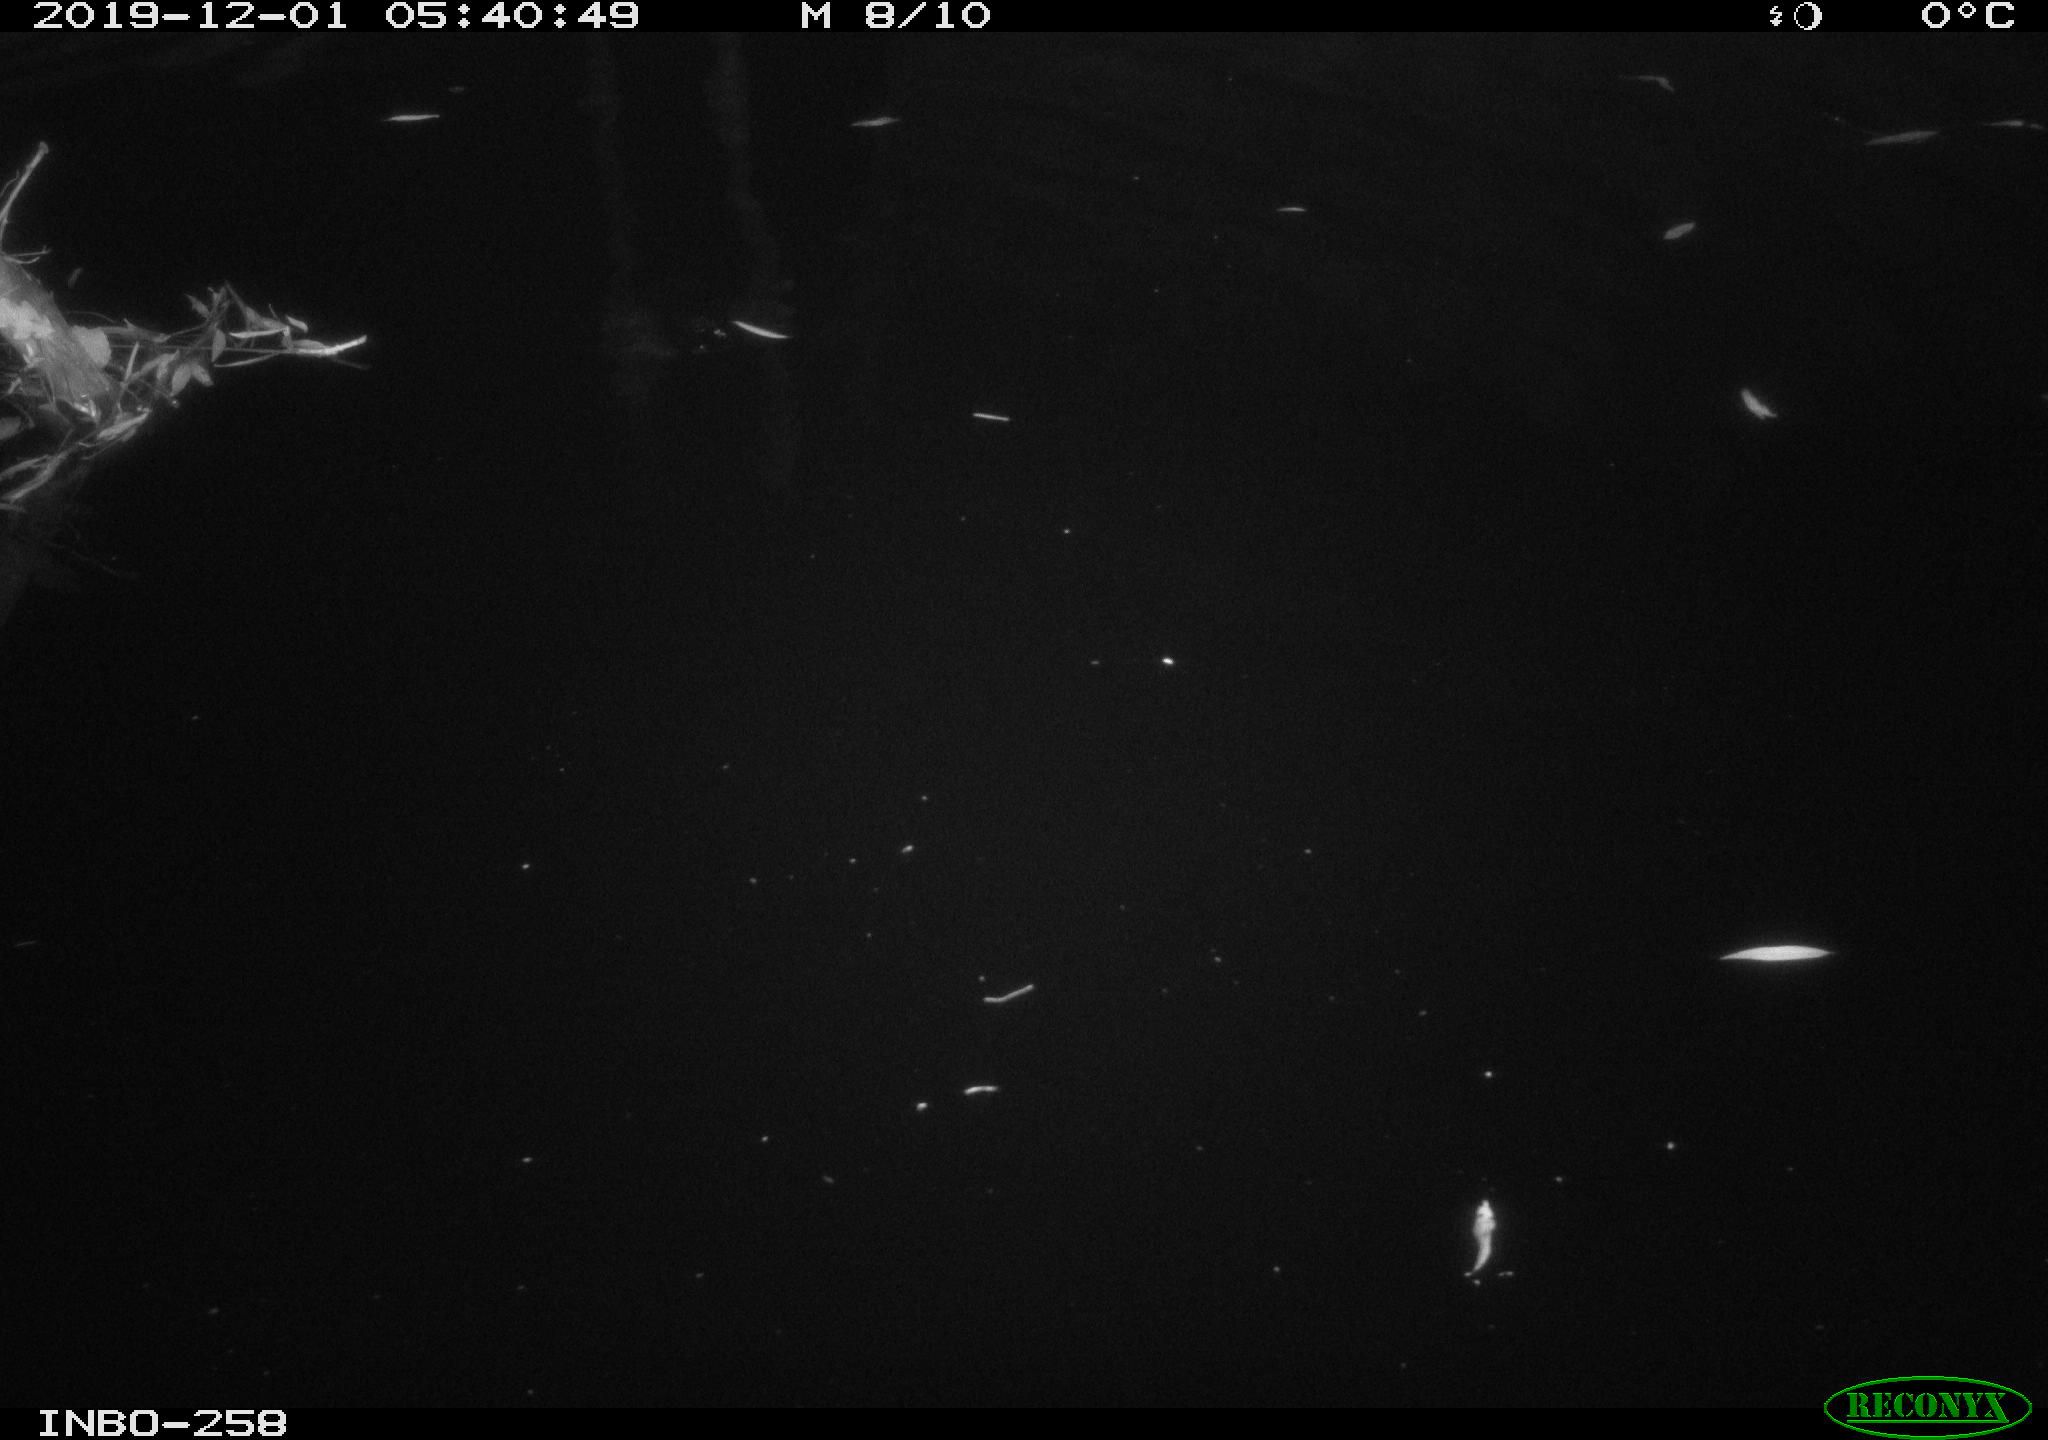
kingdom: Animalia
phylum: Chordata
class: Aves
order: Anseriformes
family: Anatidae
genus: Anas
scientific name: Anas platyrhynchos
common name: Mallard
